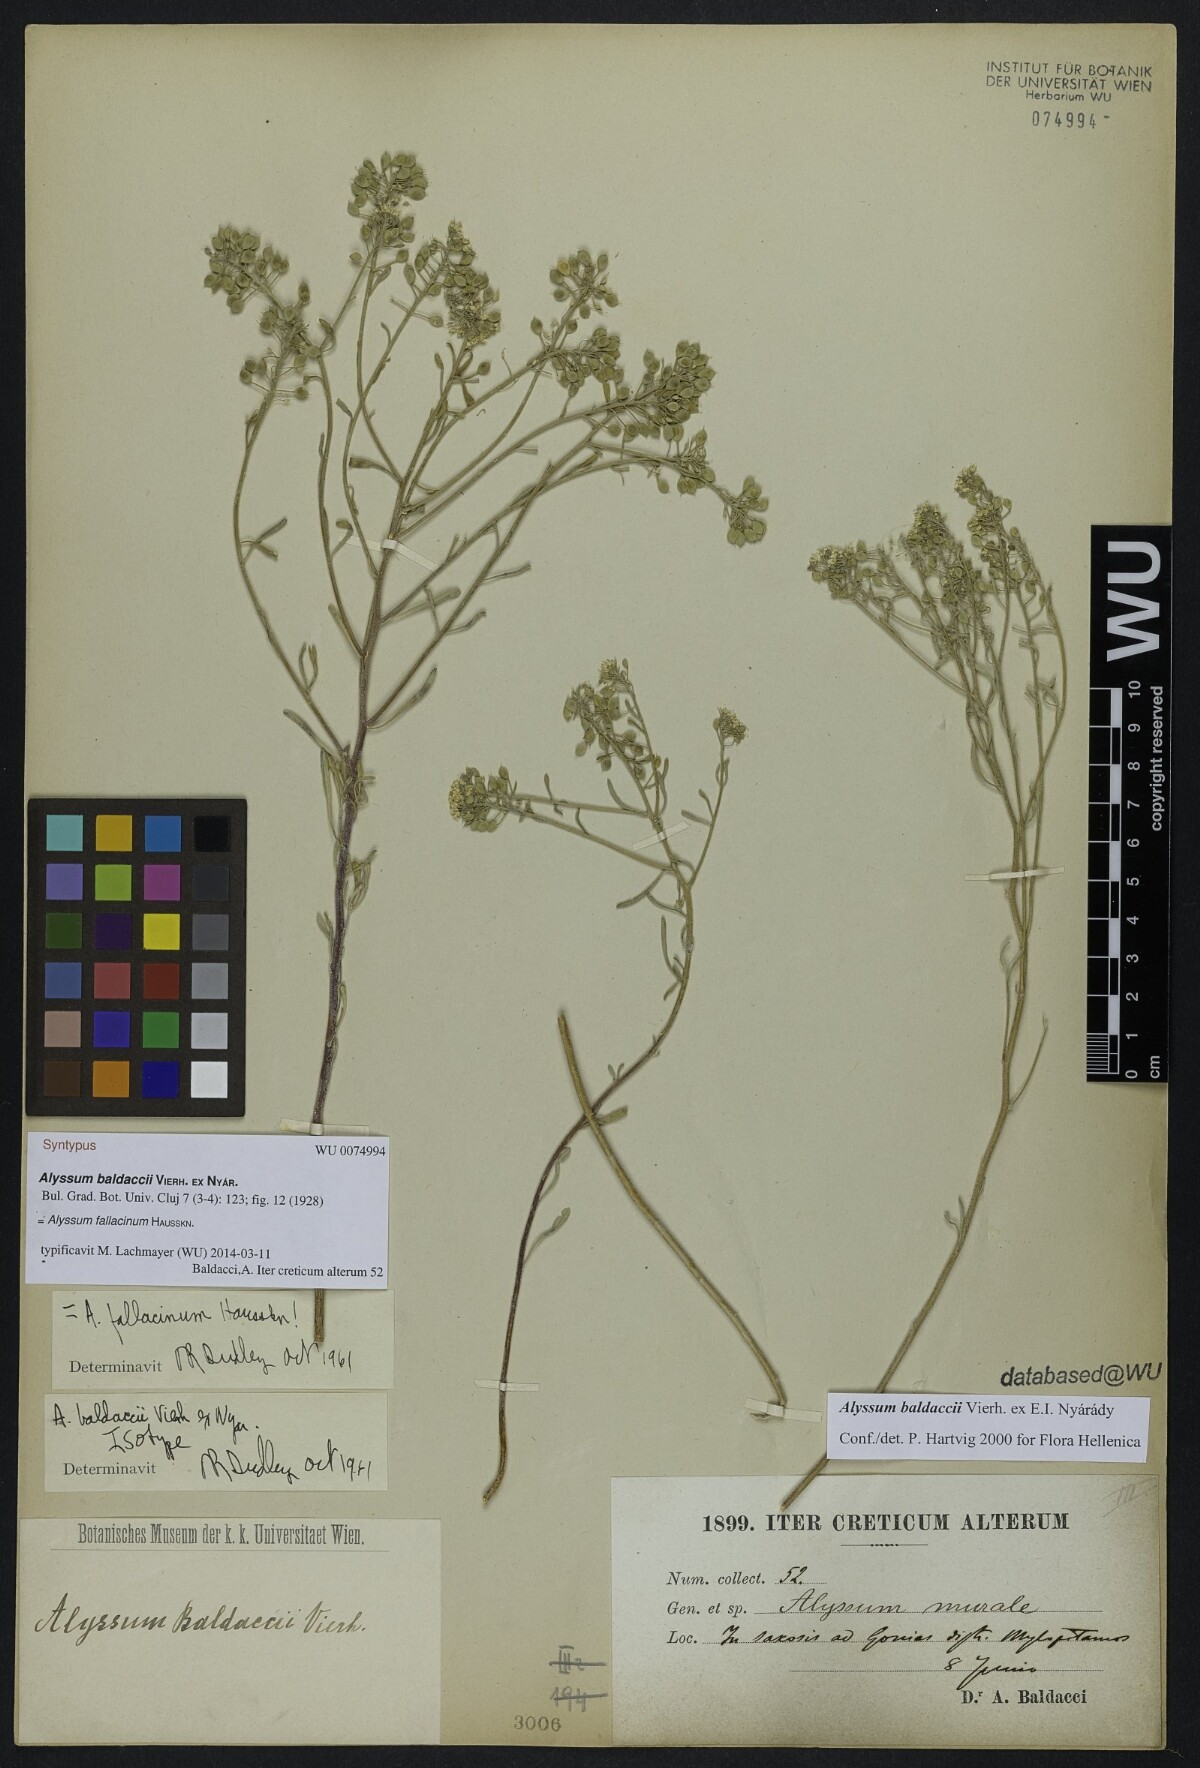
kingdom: Plantae
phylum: Tracheophyta
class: Magnoliopsida
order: Brassicales
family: Brassicaceae
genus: Odontarrhena
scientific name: Odontarrhena fallacina
